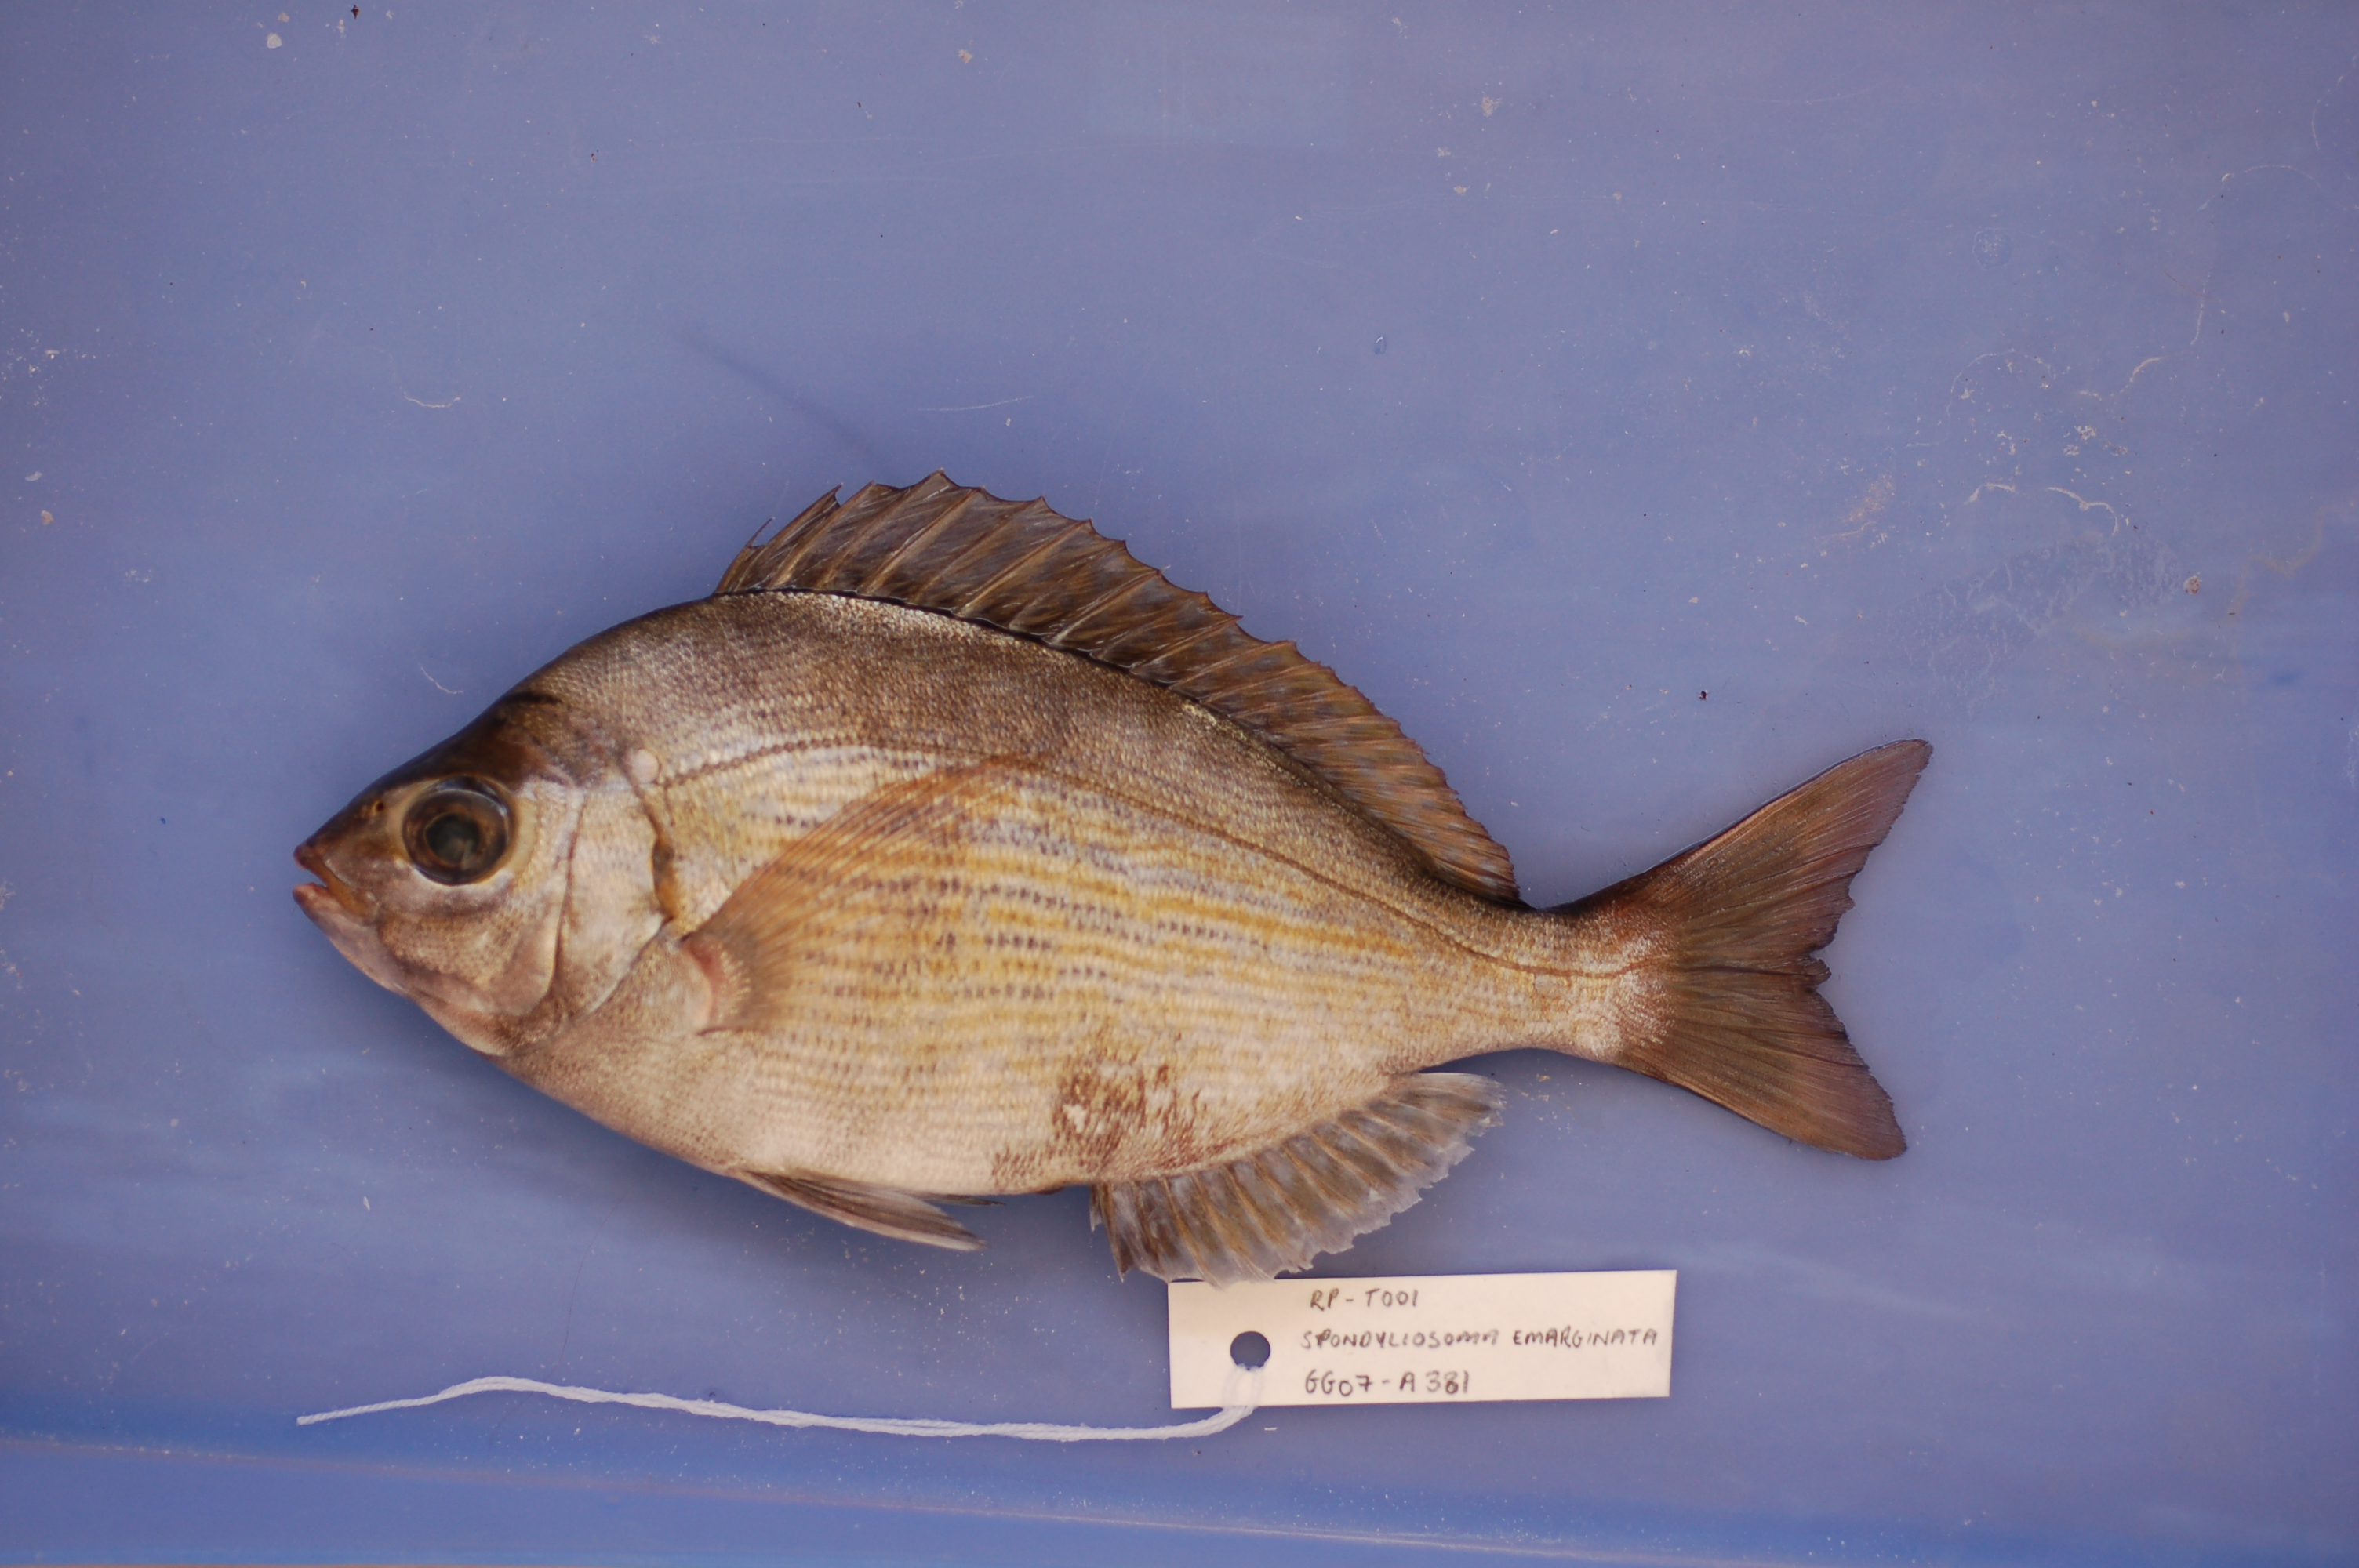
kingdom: Animalia
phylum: Chordata
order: Perciformes
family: Sparidae
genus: Spondyliosoma
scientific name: Spondyliosoma emarginatum
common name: Steentje seabream
